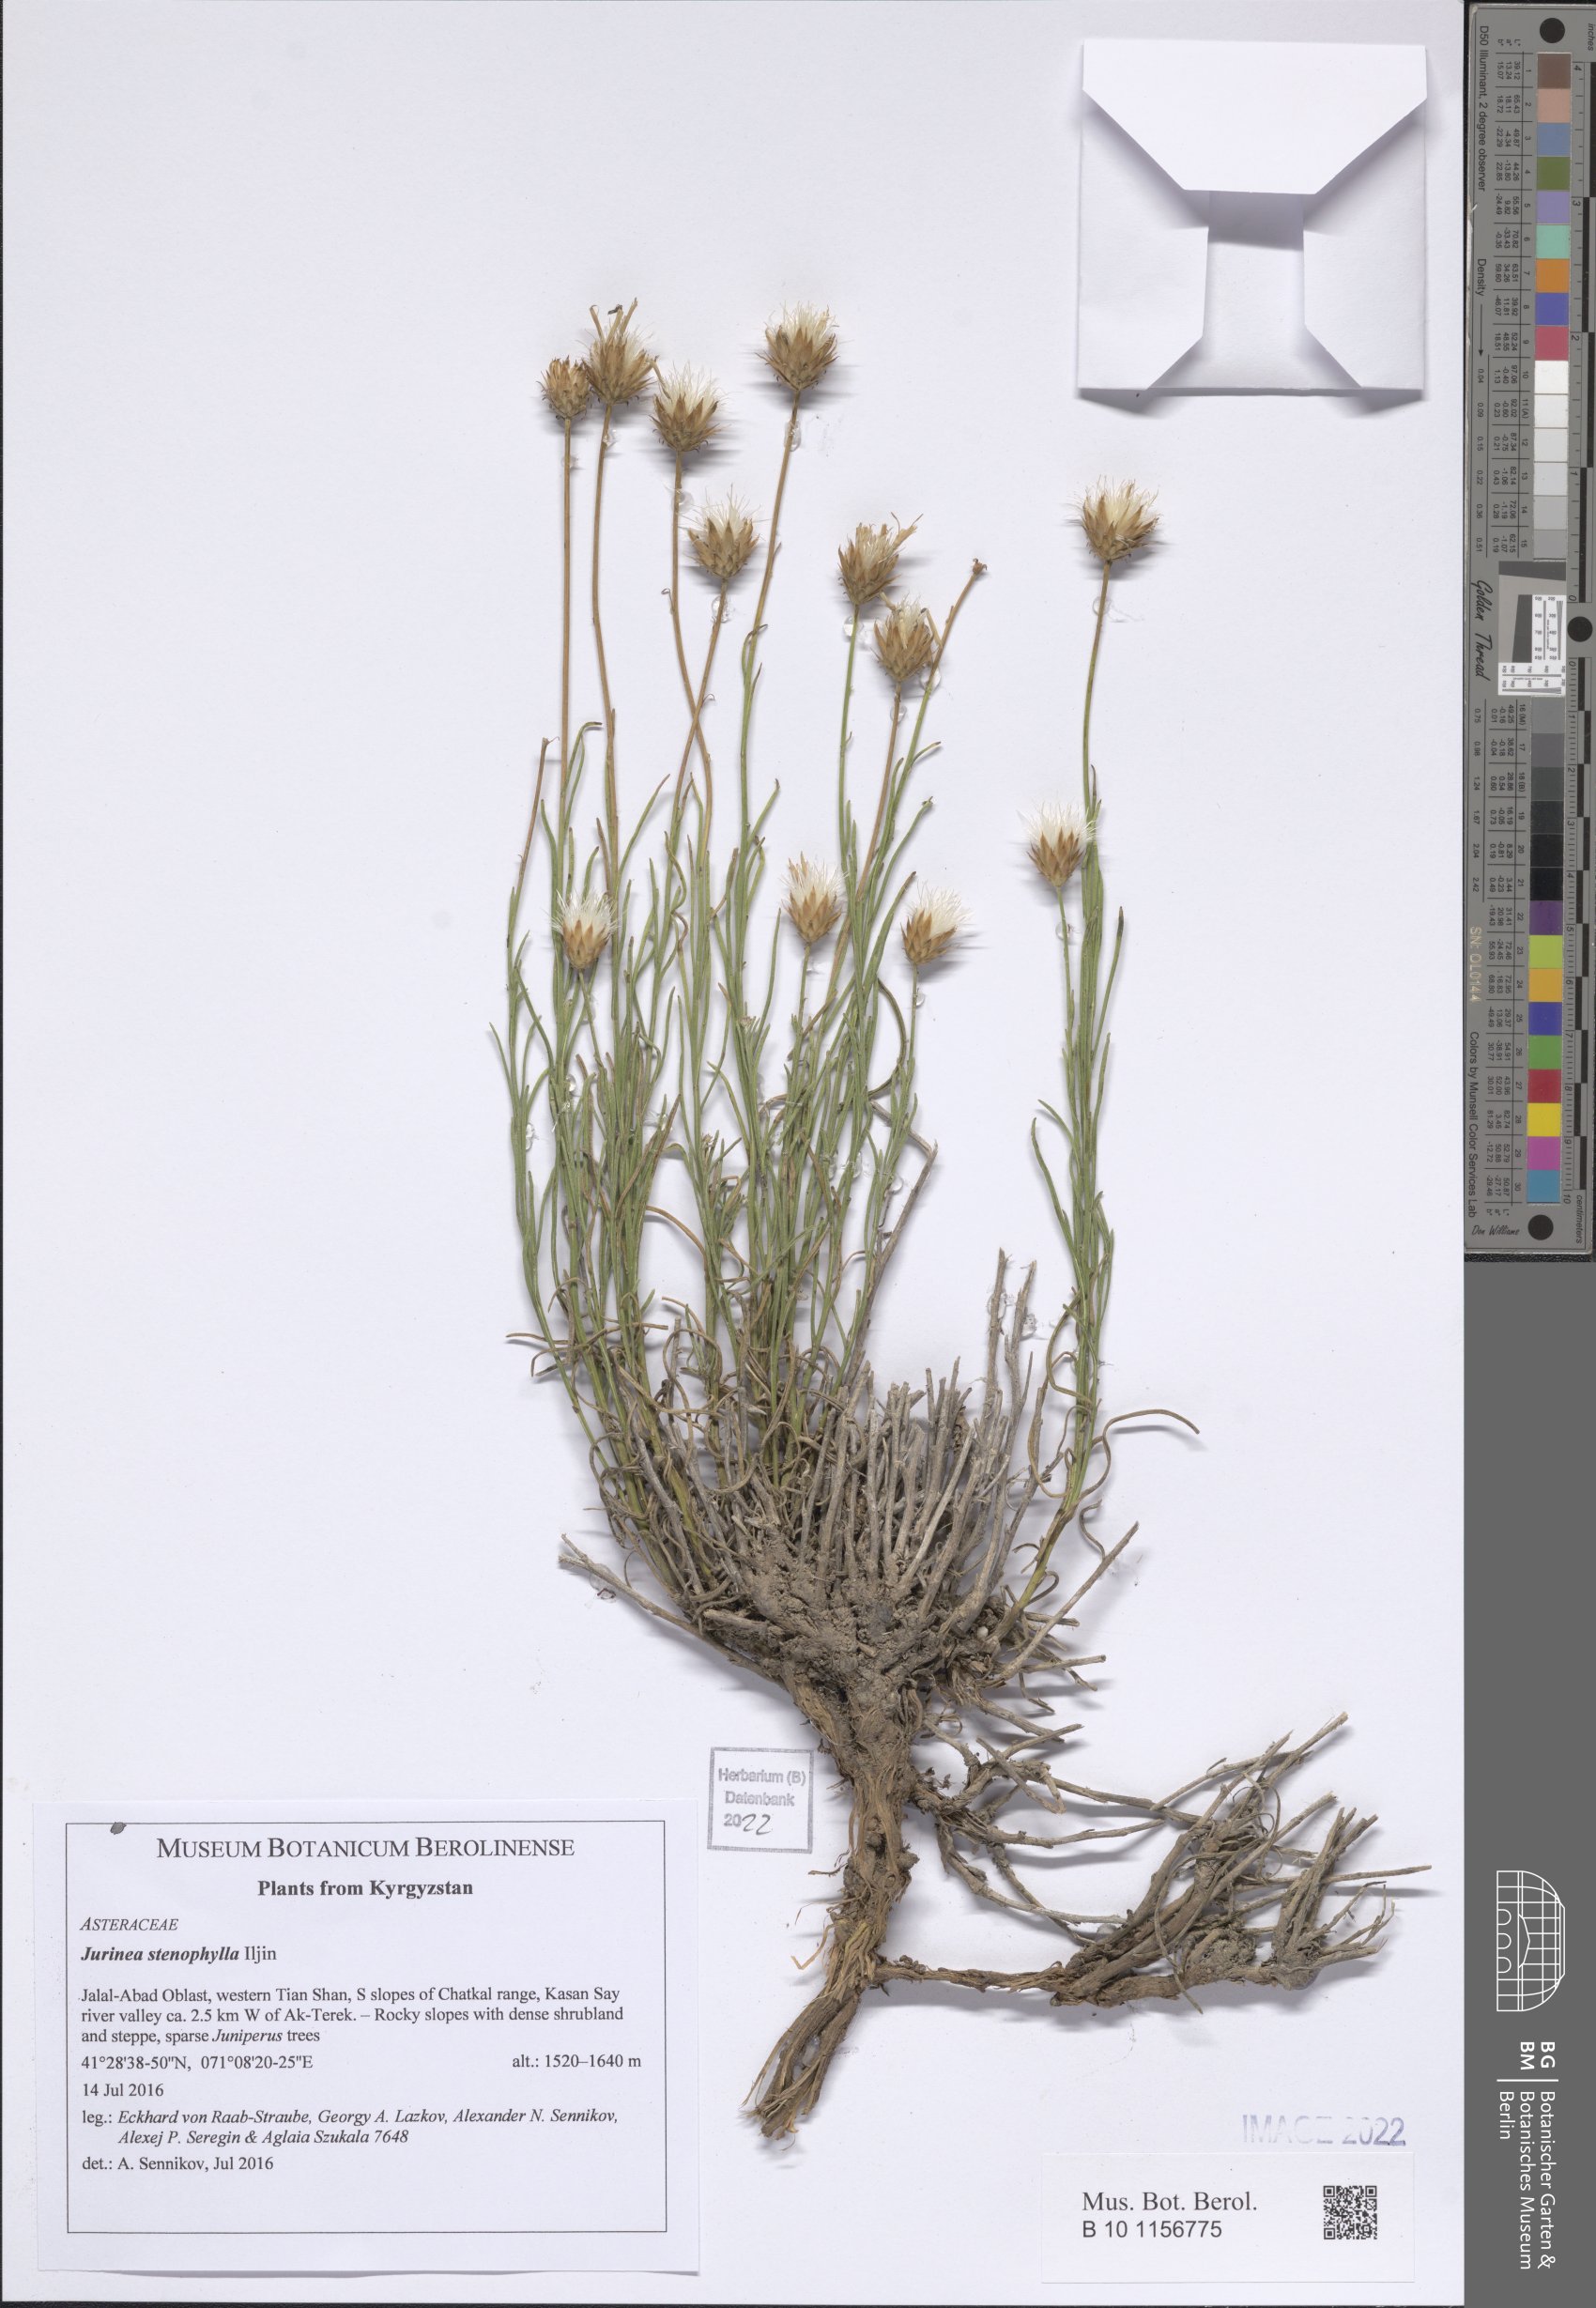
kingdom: Plantae
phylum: Tracheophyta
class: Magnoliopsida
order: Asterales
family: Asteraceae
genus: Jurinea
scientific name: Jurinea stenophylla
